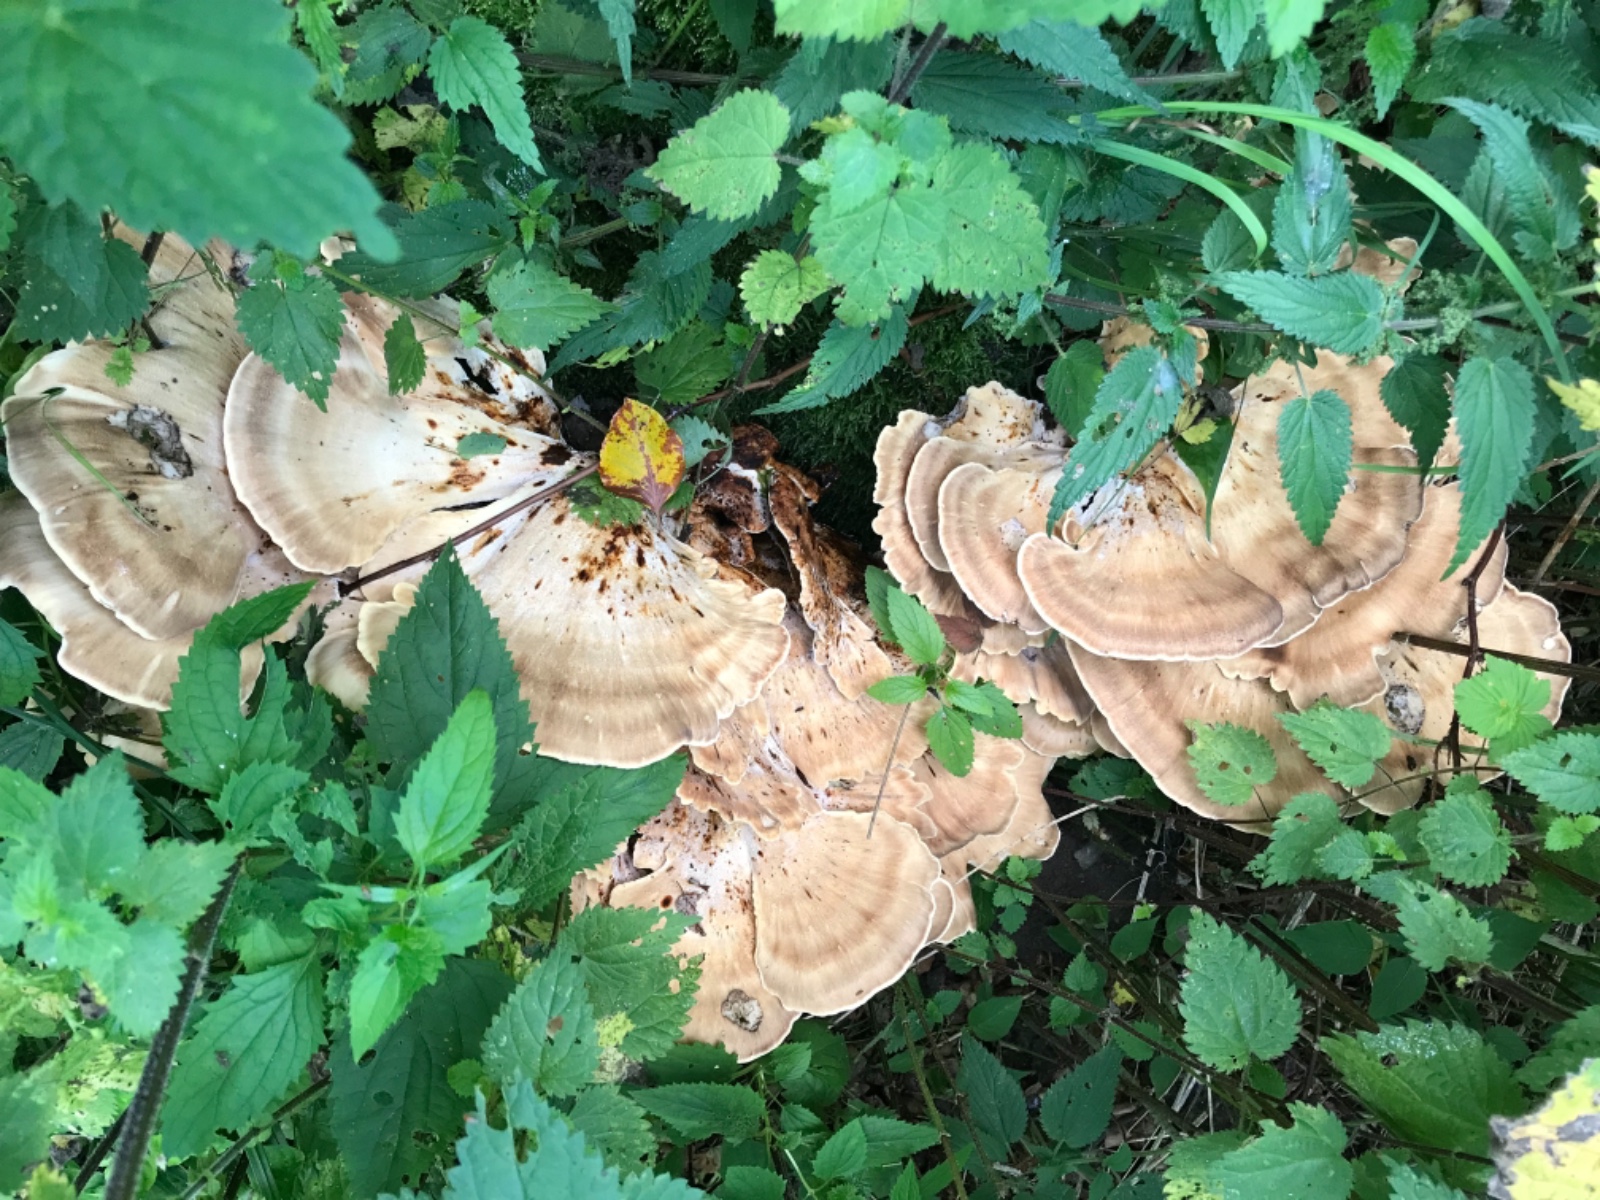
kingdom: Fungi
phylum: Basidiomycota
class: Agaricomycetes
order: Polyporales
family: Meripilaceae
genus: Meripilus
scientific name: Meripilus giganteus
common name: kæmpeporesvamp
